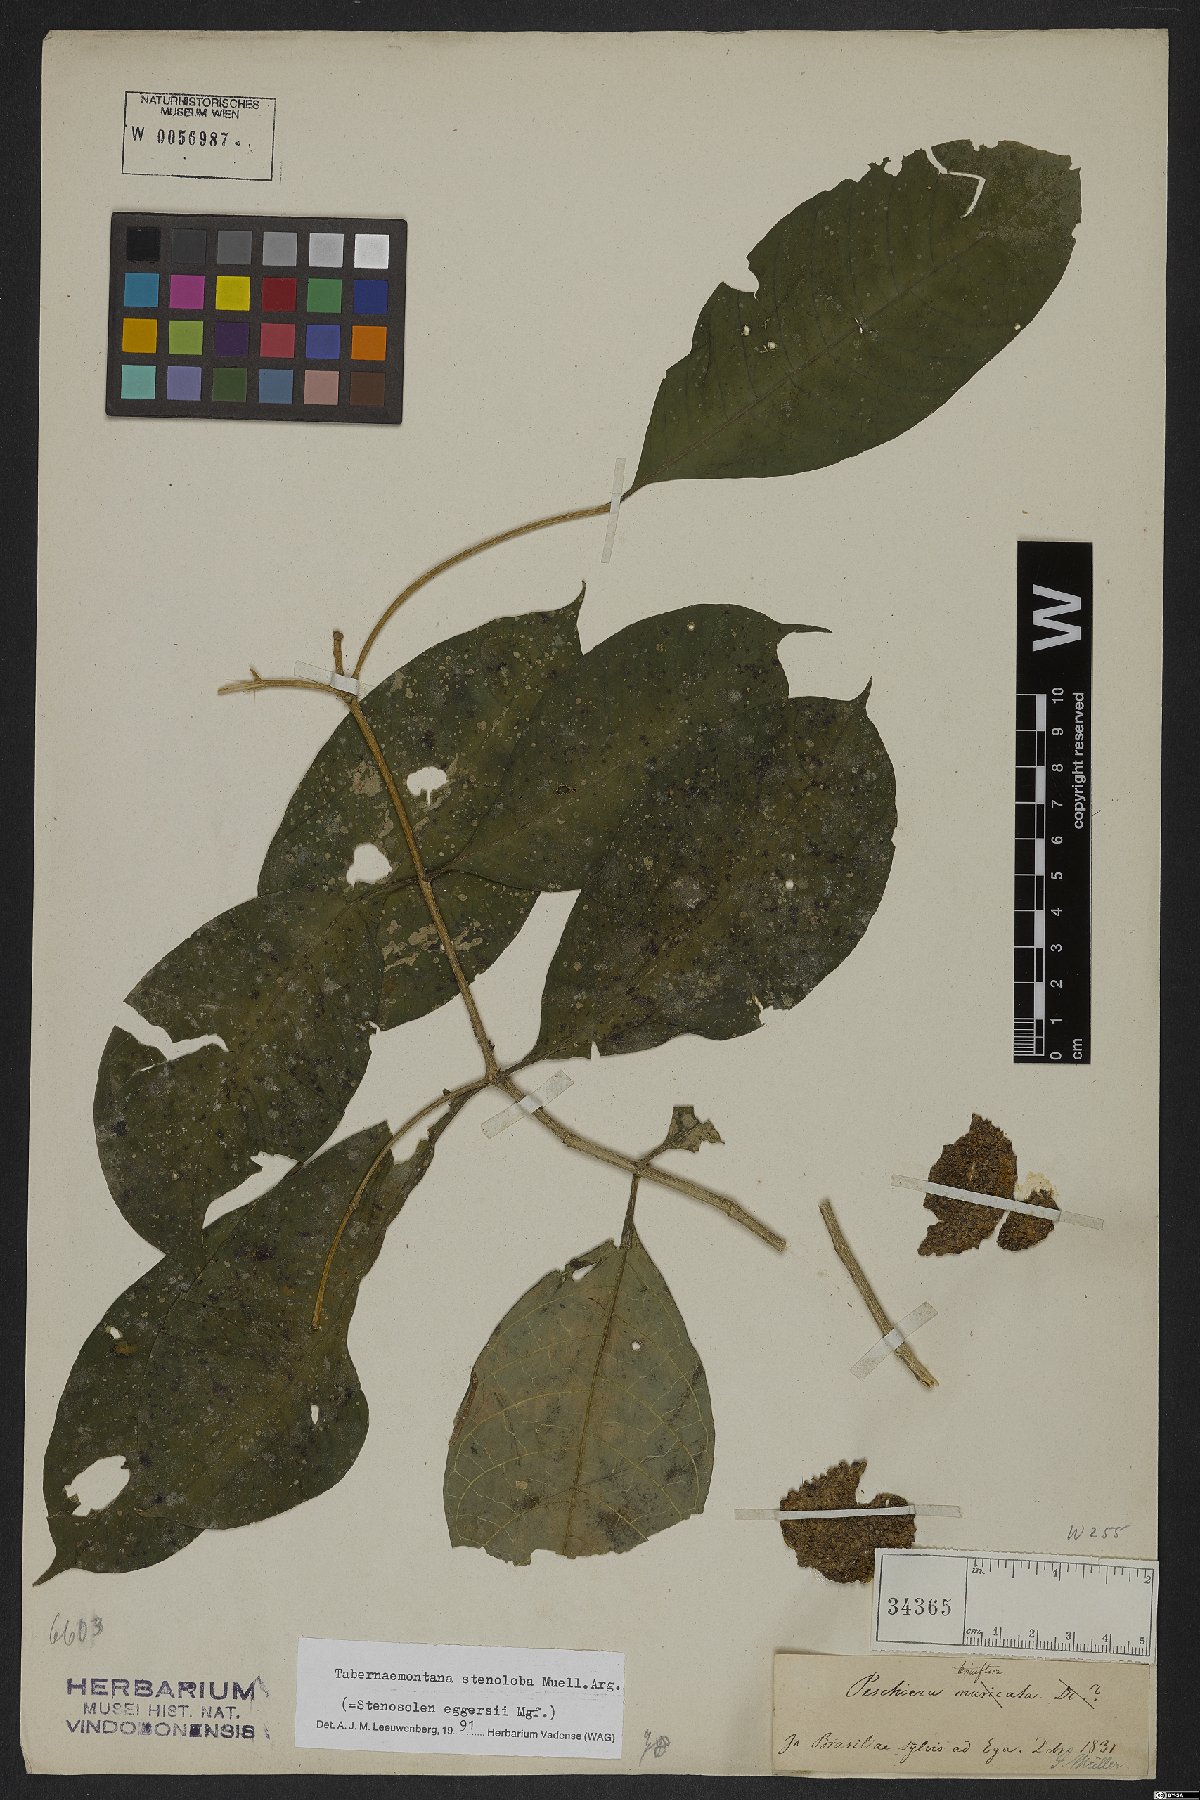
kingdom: Plantae
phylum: Tracheophyta
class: Magnoliopsida
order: Gentianales
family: Apocynaceae
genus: Tabernaemontana
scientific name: Tabernaemontana heterophylla
